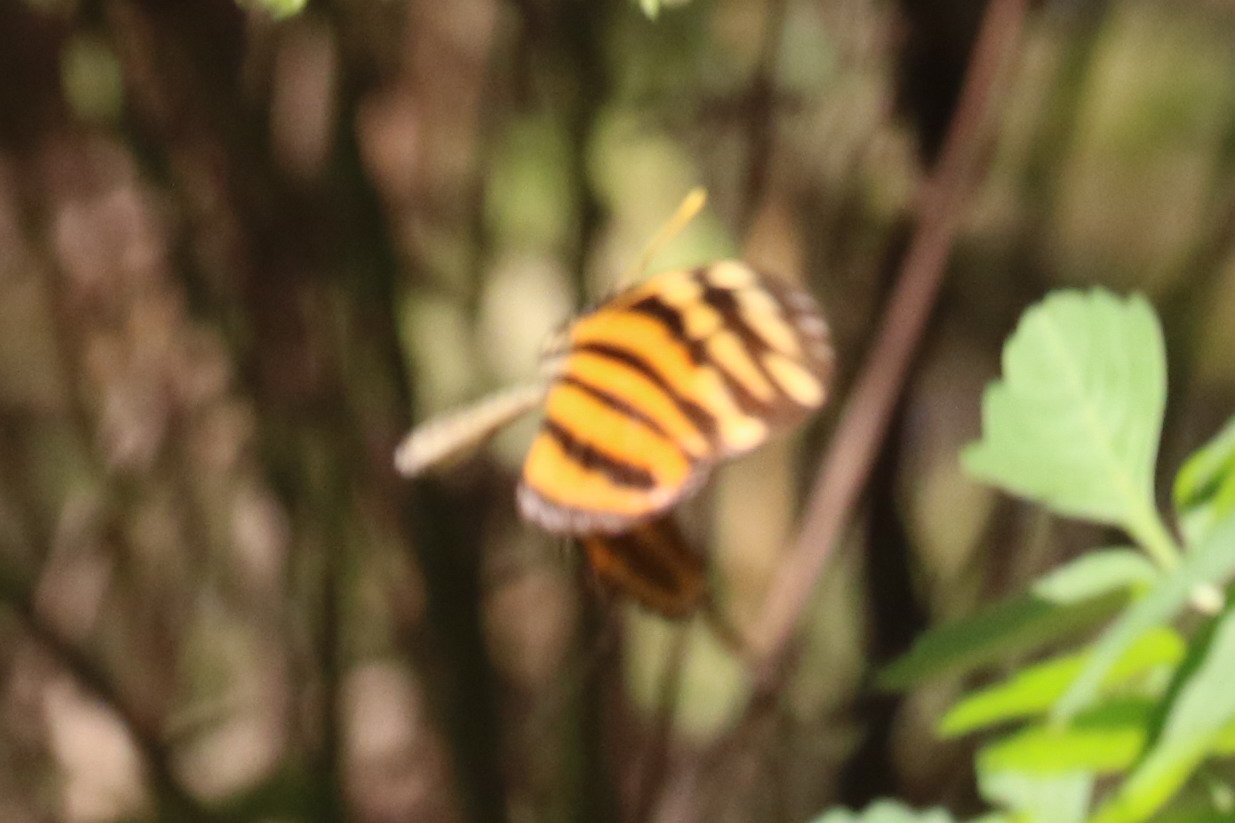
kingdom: Animalia
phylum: Arthropoda
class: Insecta
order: Lepidoptera
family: Nymphalidae
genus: Eueides
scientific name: Eueides isabella
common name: Isabella's Heliconian
